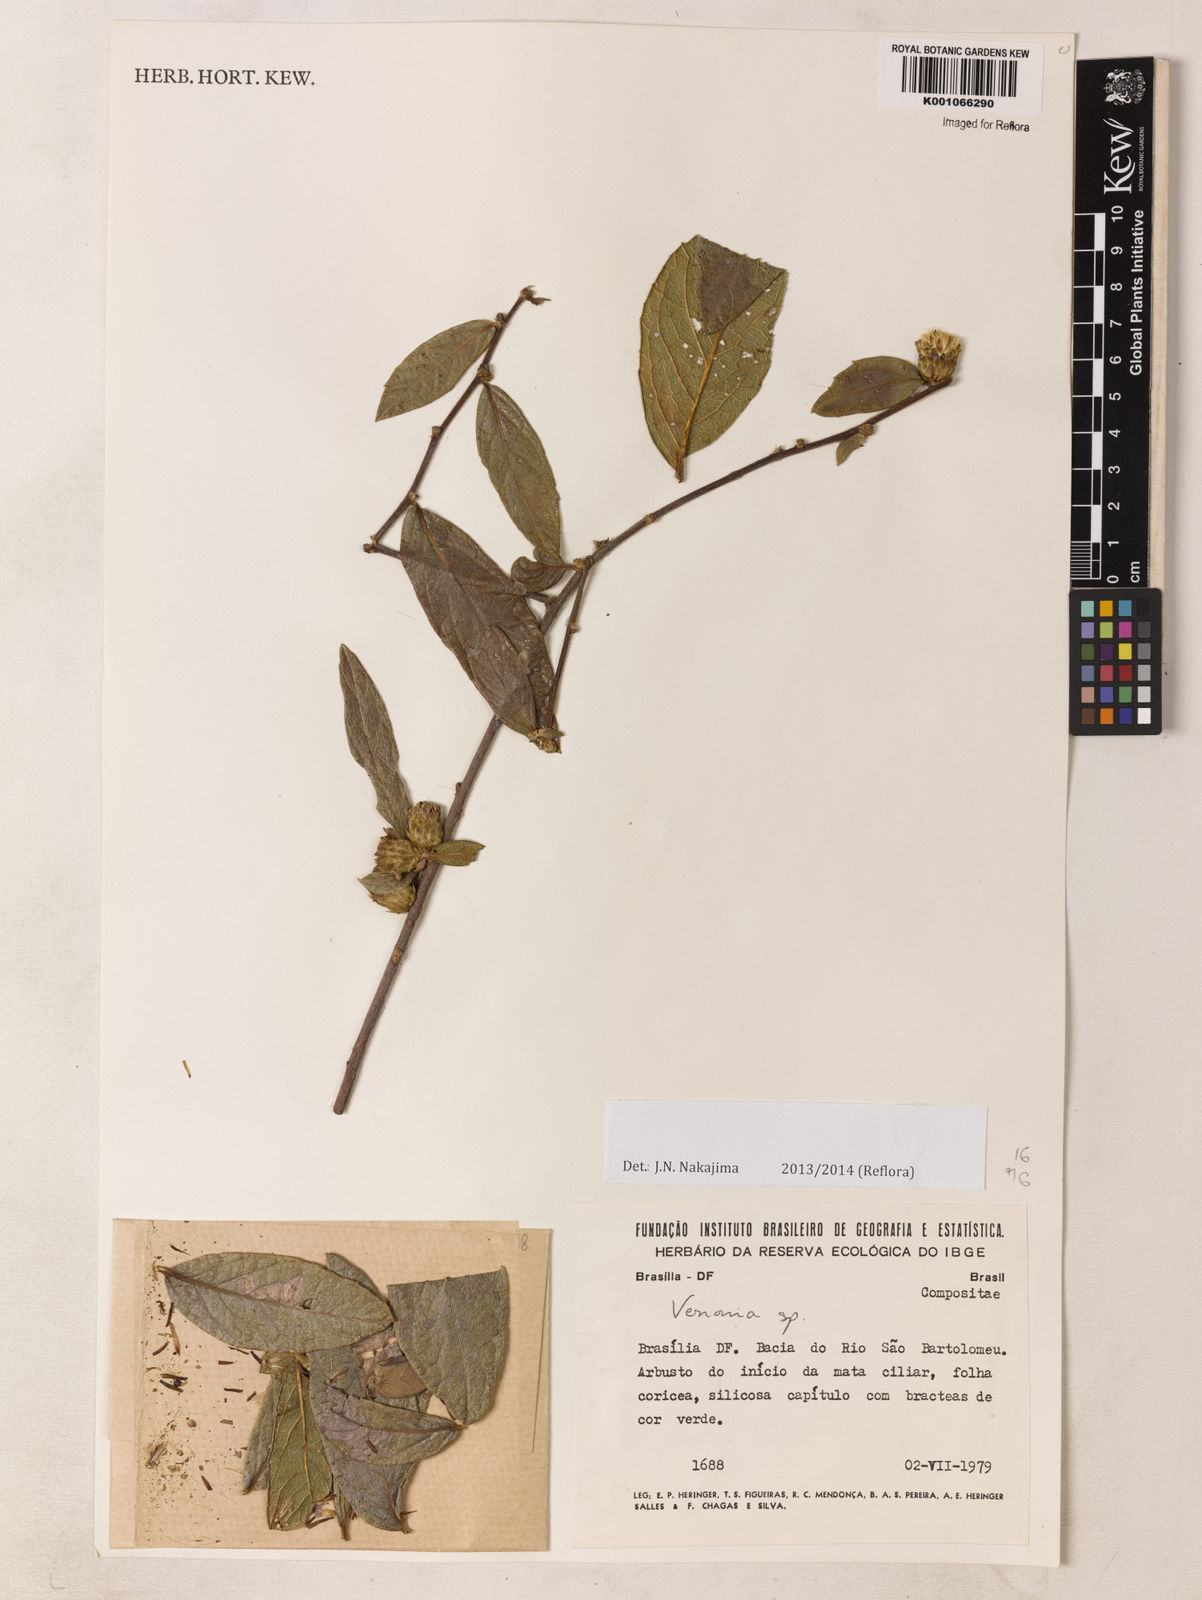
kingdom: Plantae
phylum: Tracheophyta
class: Magnoliopsida
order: Asterales
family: Asteraceae
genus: Lessingianthus
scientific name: Lessingianthus zuccarinianus
